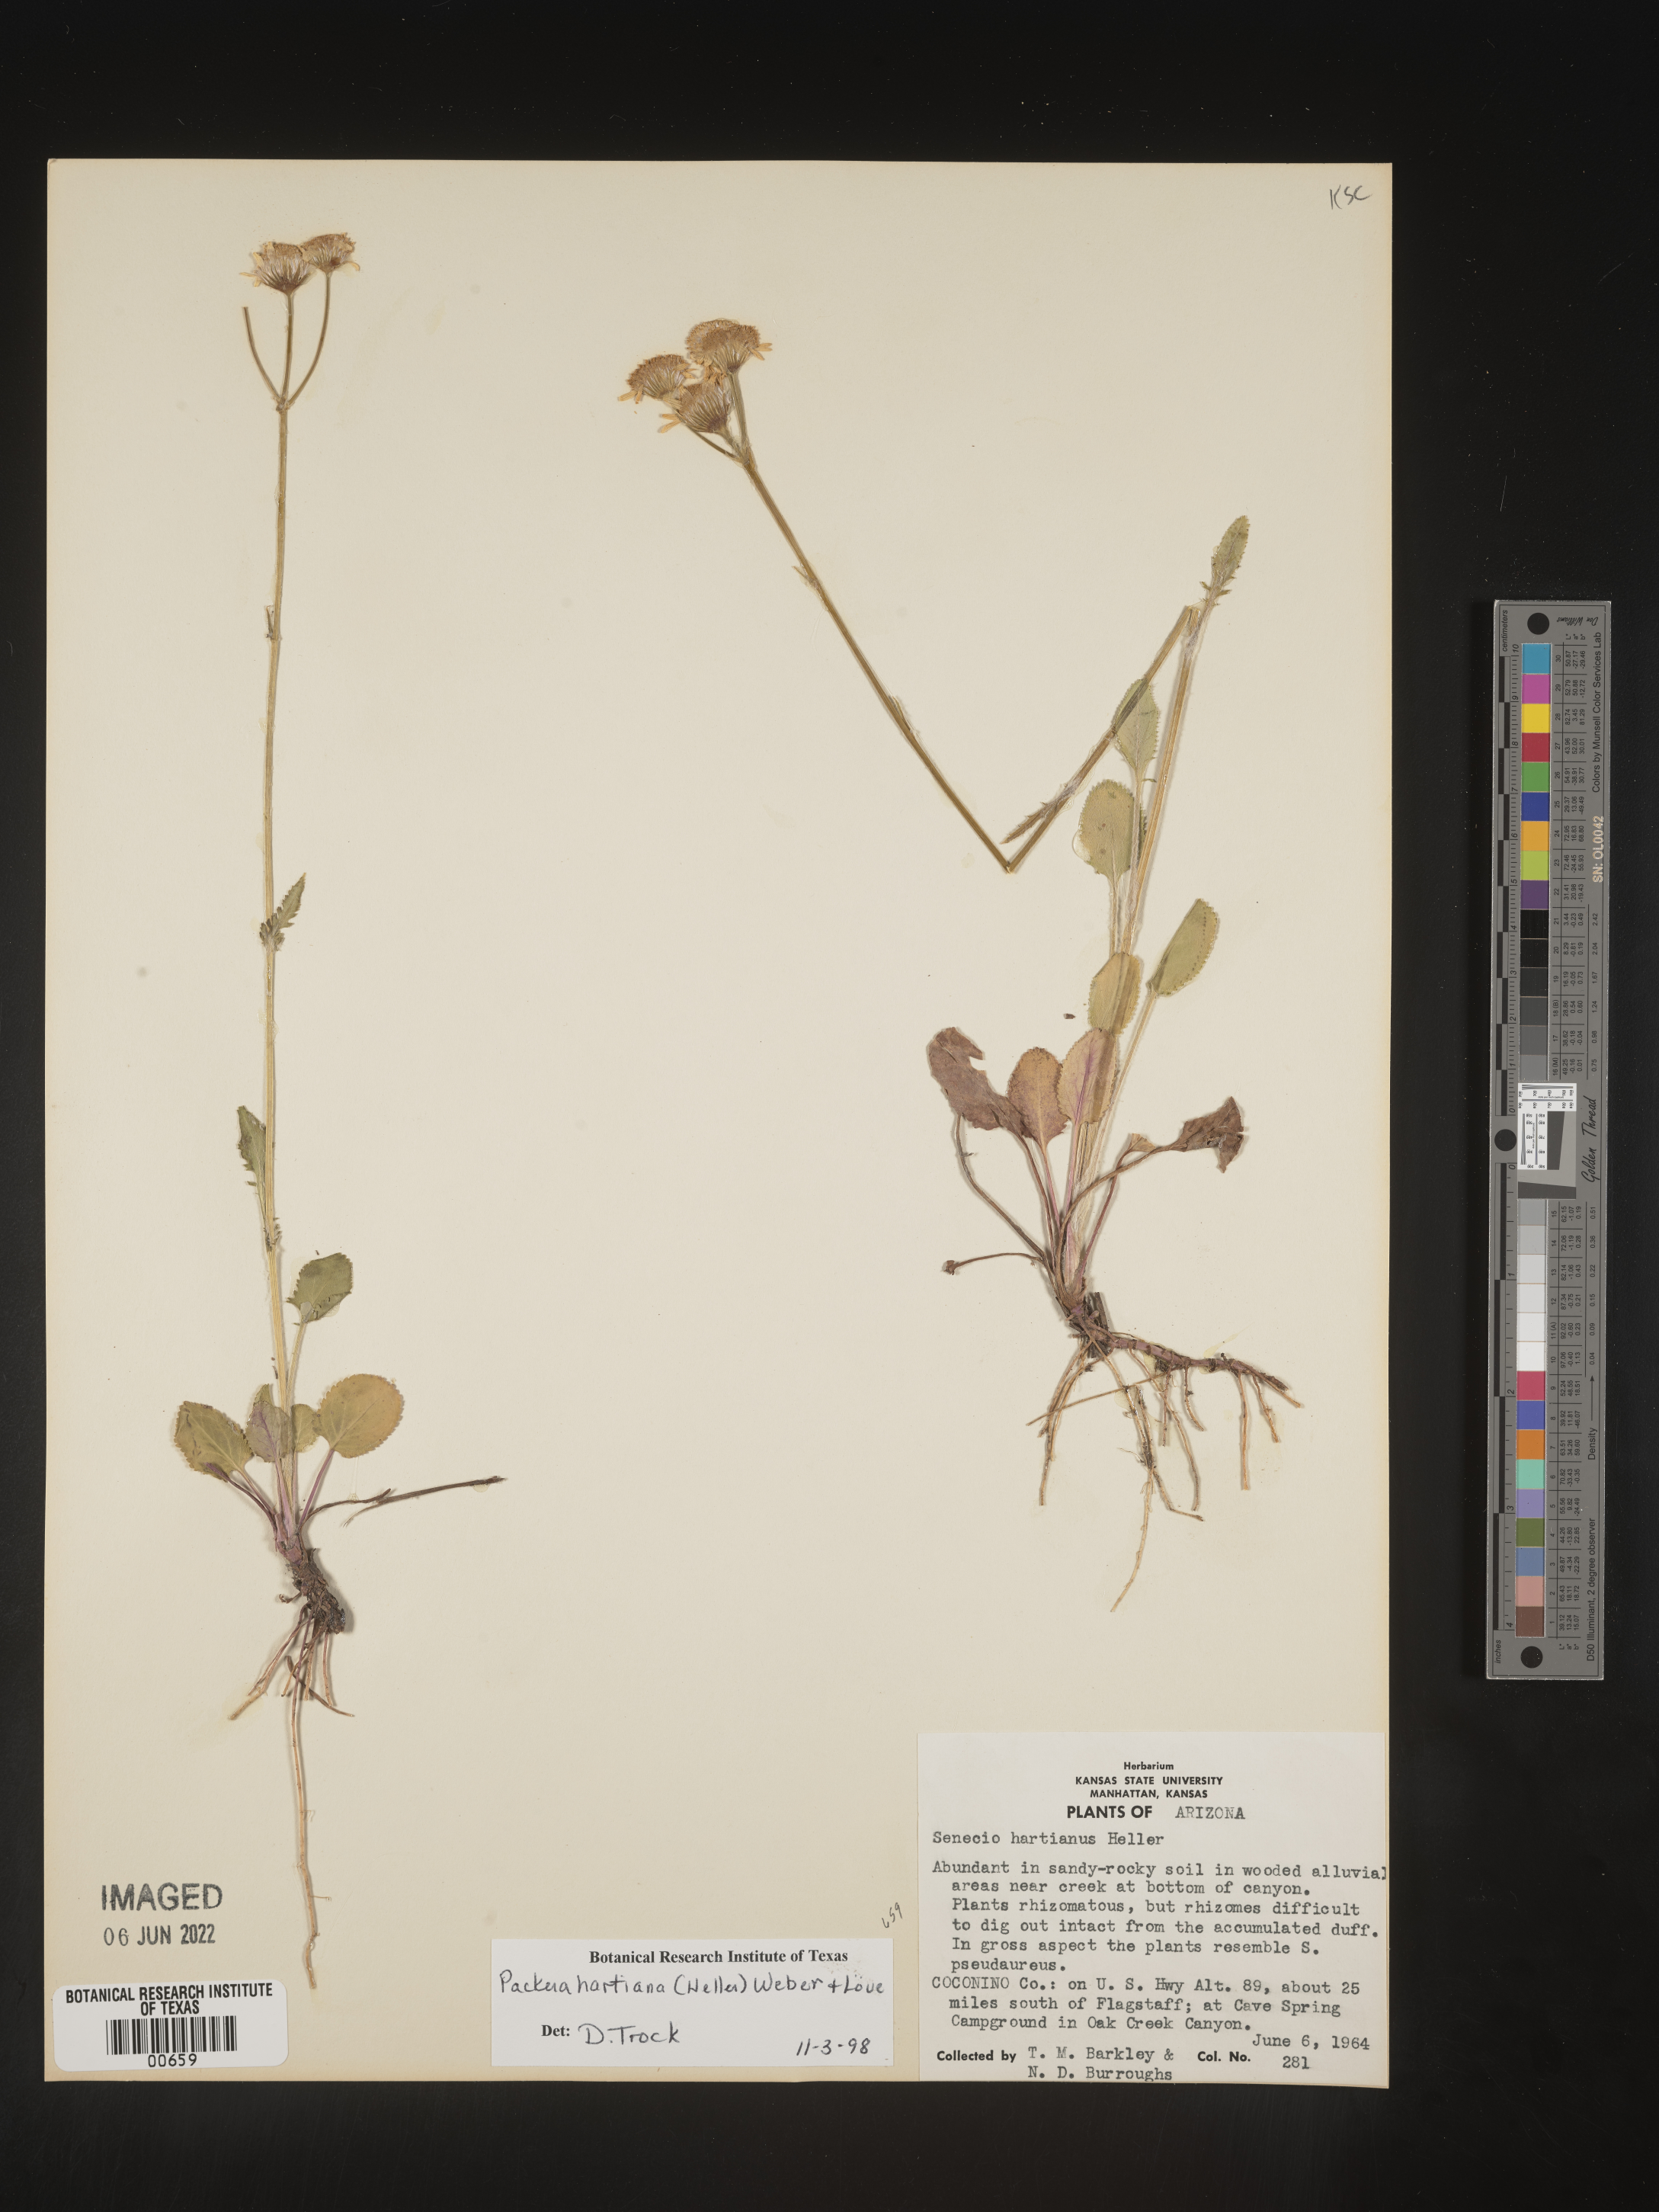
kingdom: Plantae
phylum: Tracheophyta
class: Magnoliopsida
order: Asterales
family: Asteraceae
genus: Packera
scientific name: Packera hartiana
